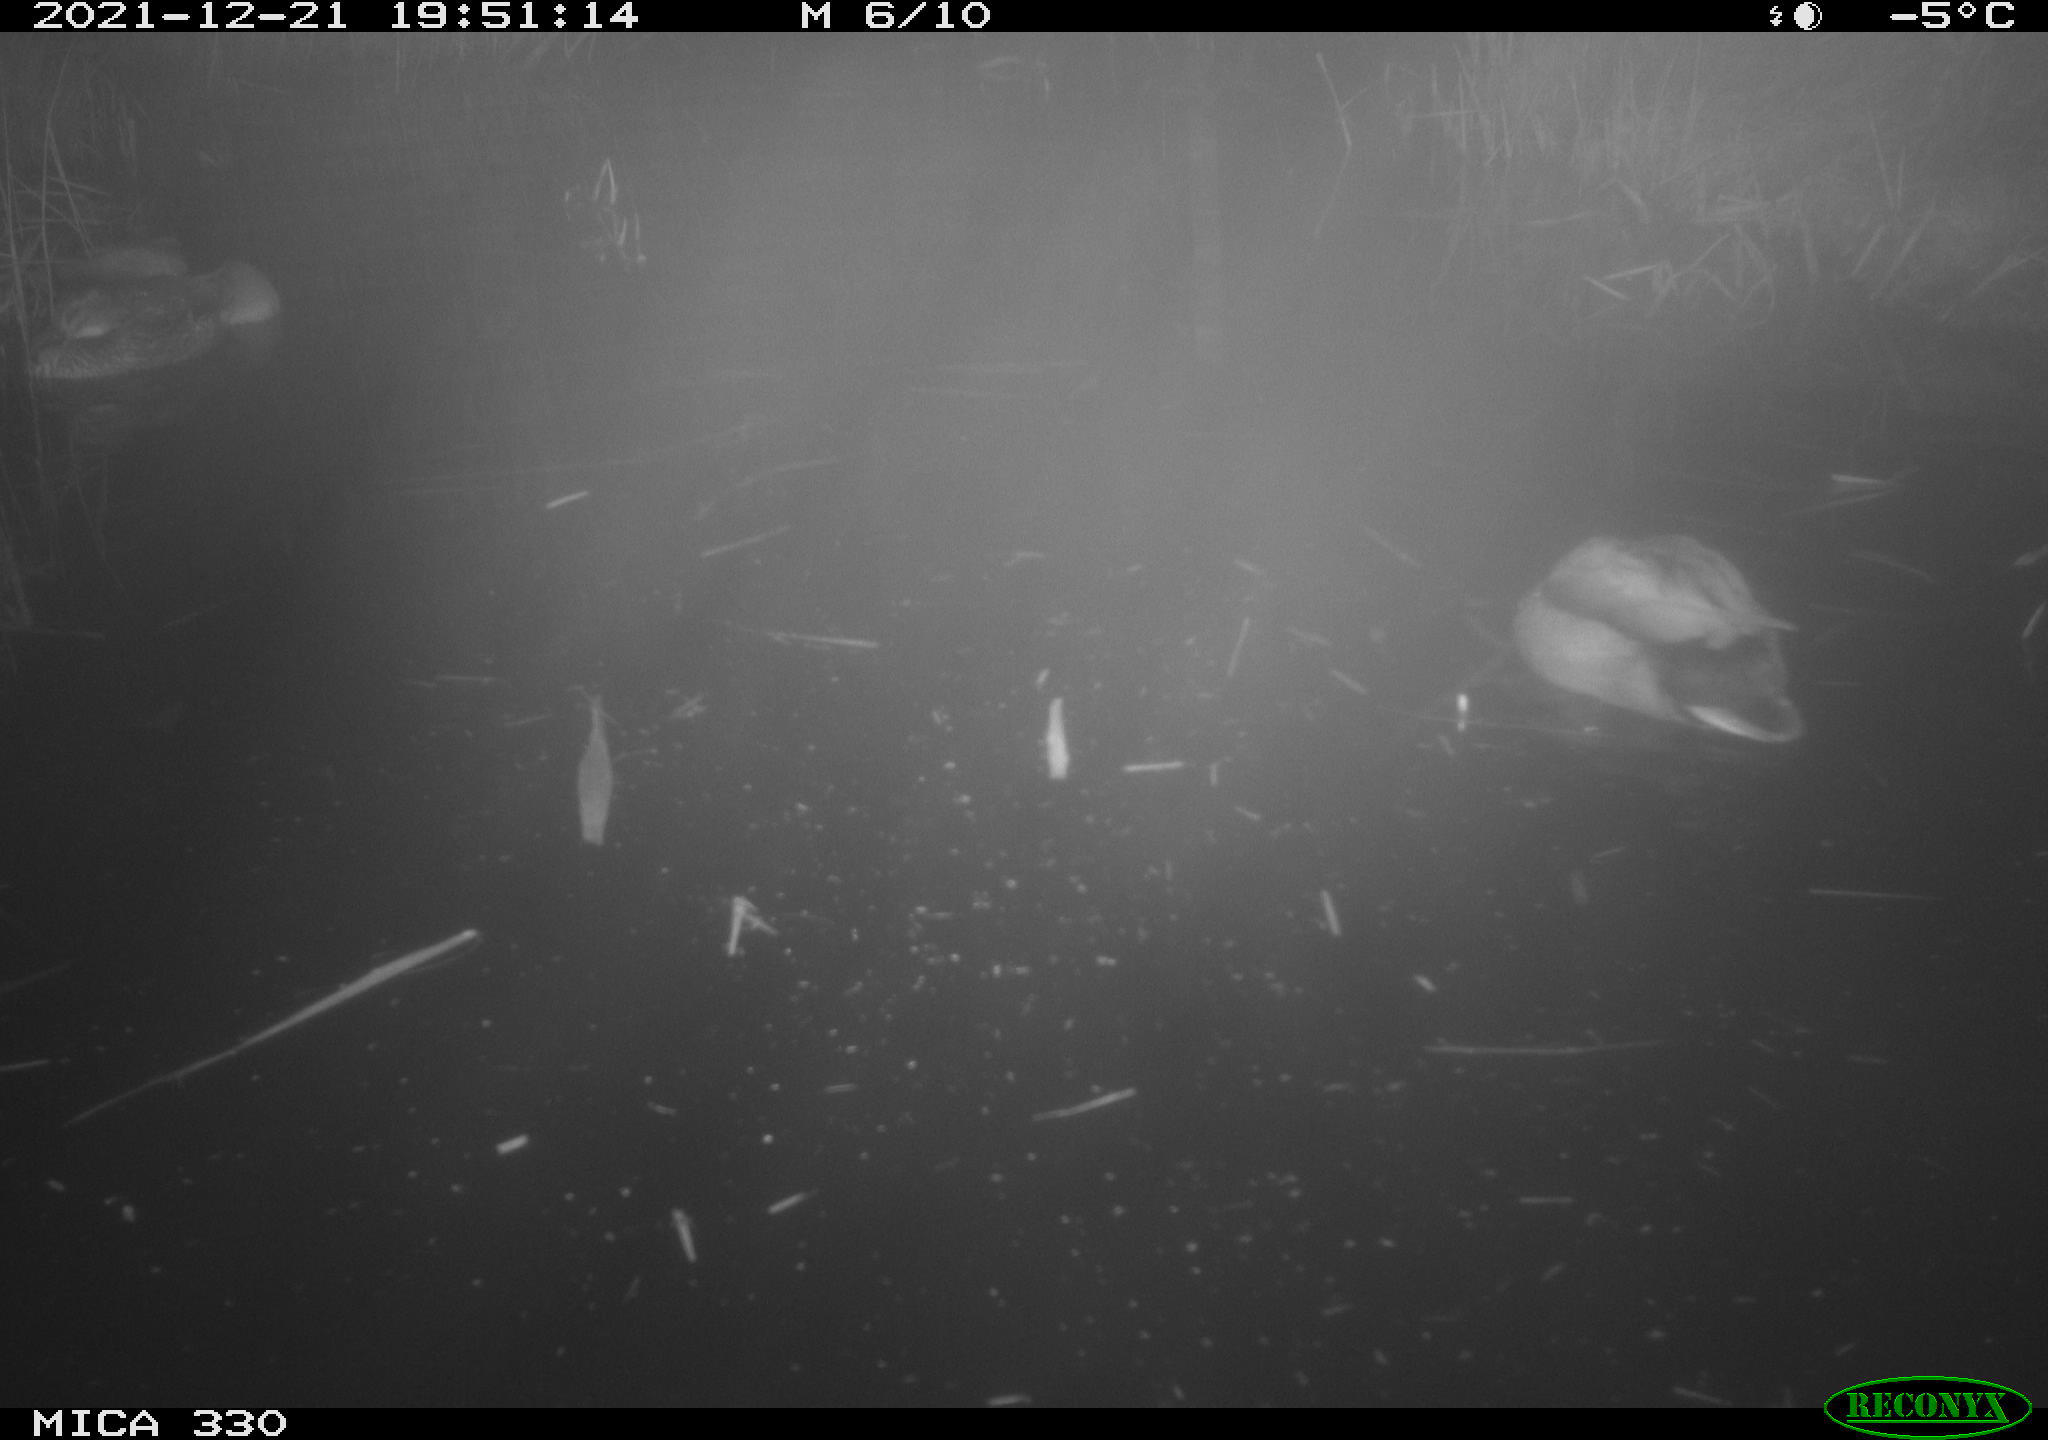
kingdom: Animalia
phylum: Chordata
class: Aves
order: Anseriformes
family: Anatidae
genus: Anas
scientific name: Anas platyrhynchos
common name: Mallard
